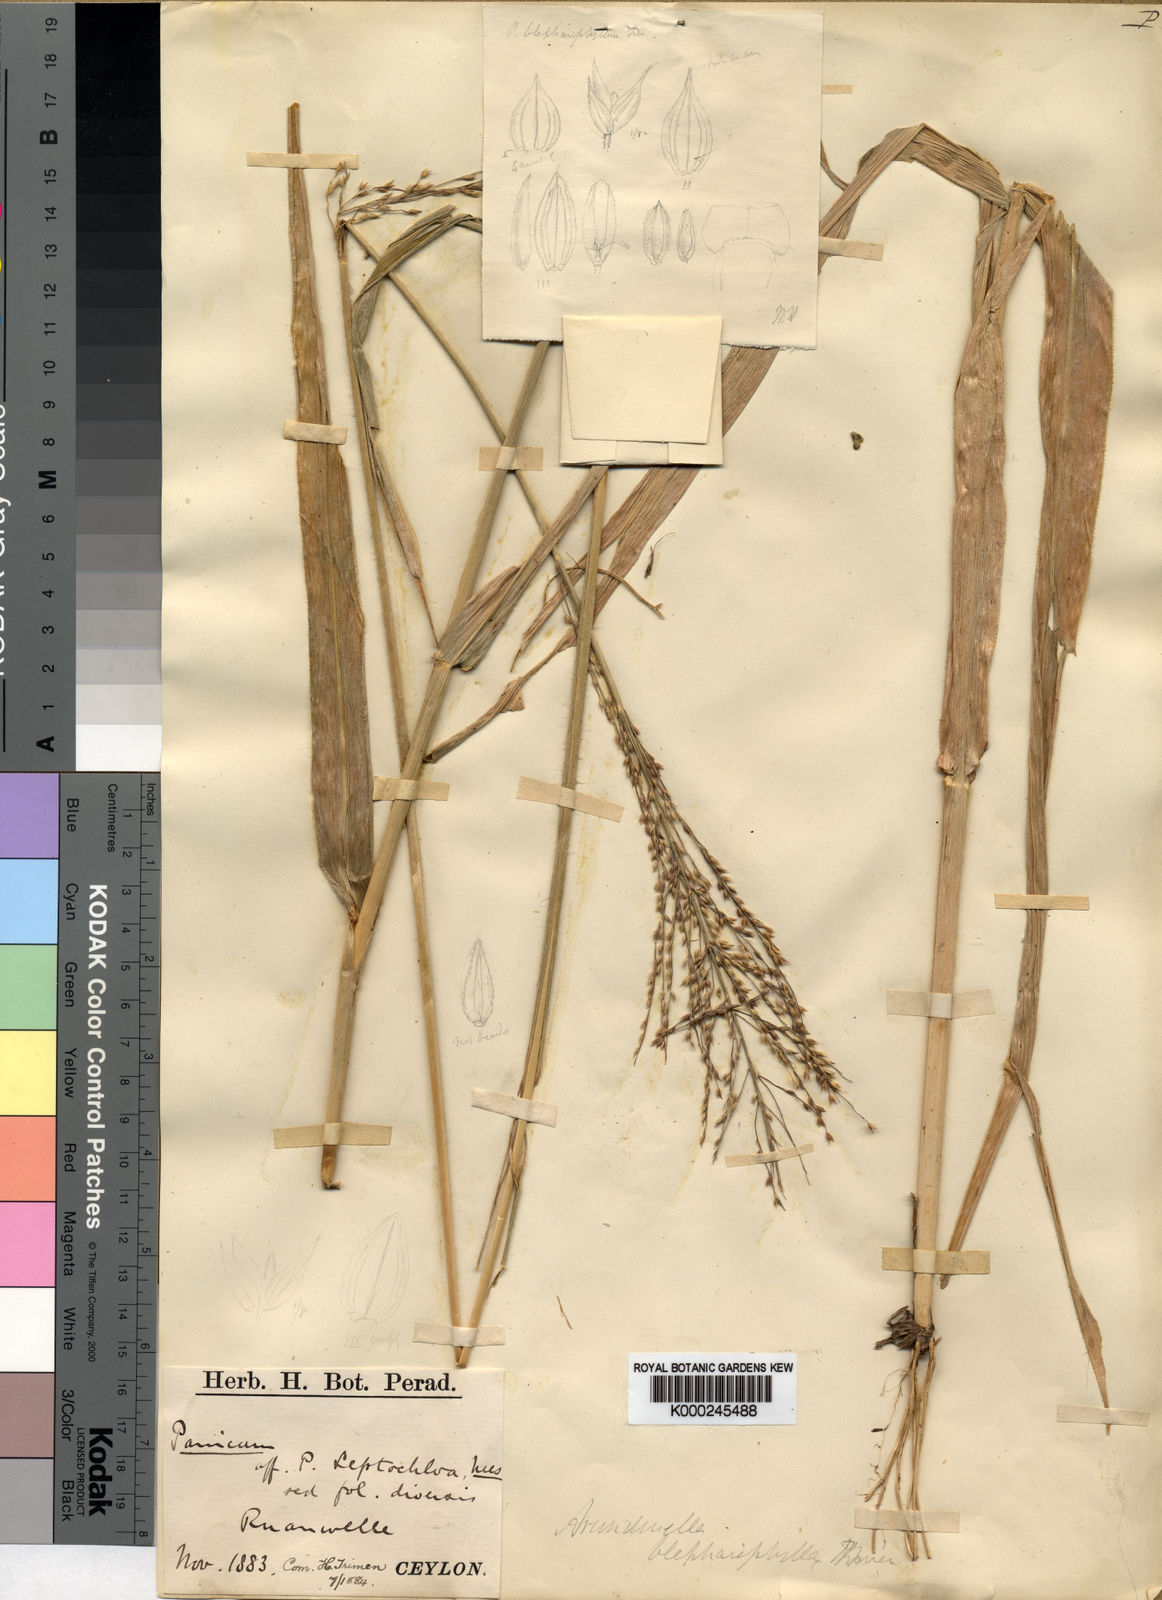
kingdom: Plantae
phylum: Tracheophyta
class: Liliopsida
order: Poales
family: Poaceae
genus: Arundinella
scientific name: Arundinella blephariphylla
